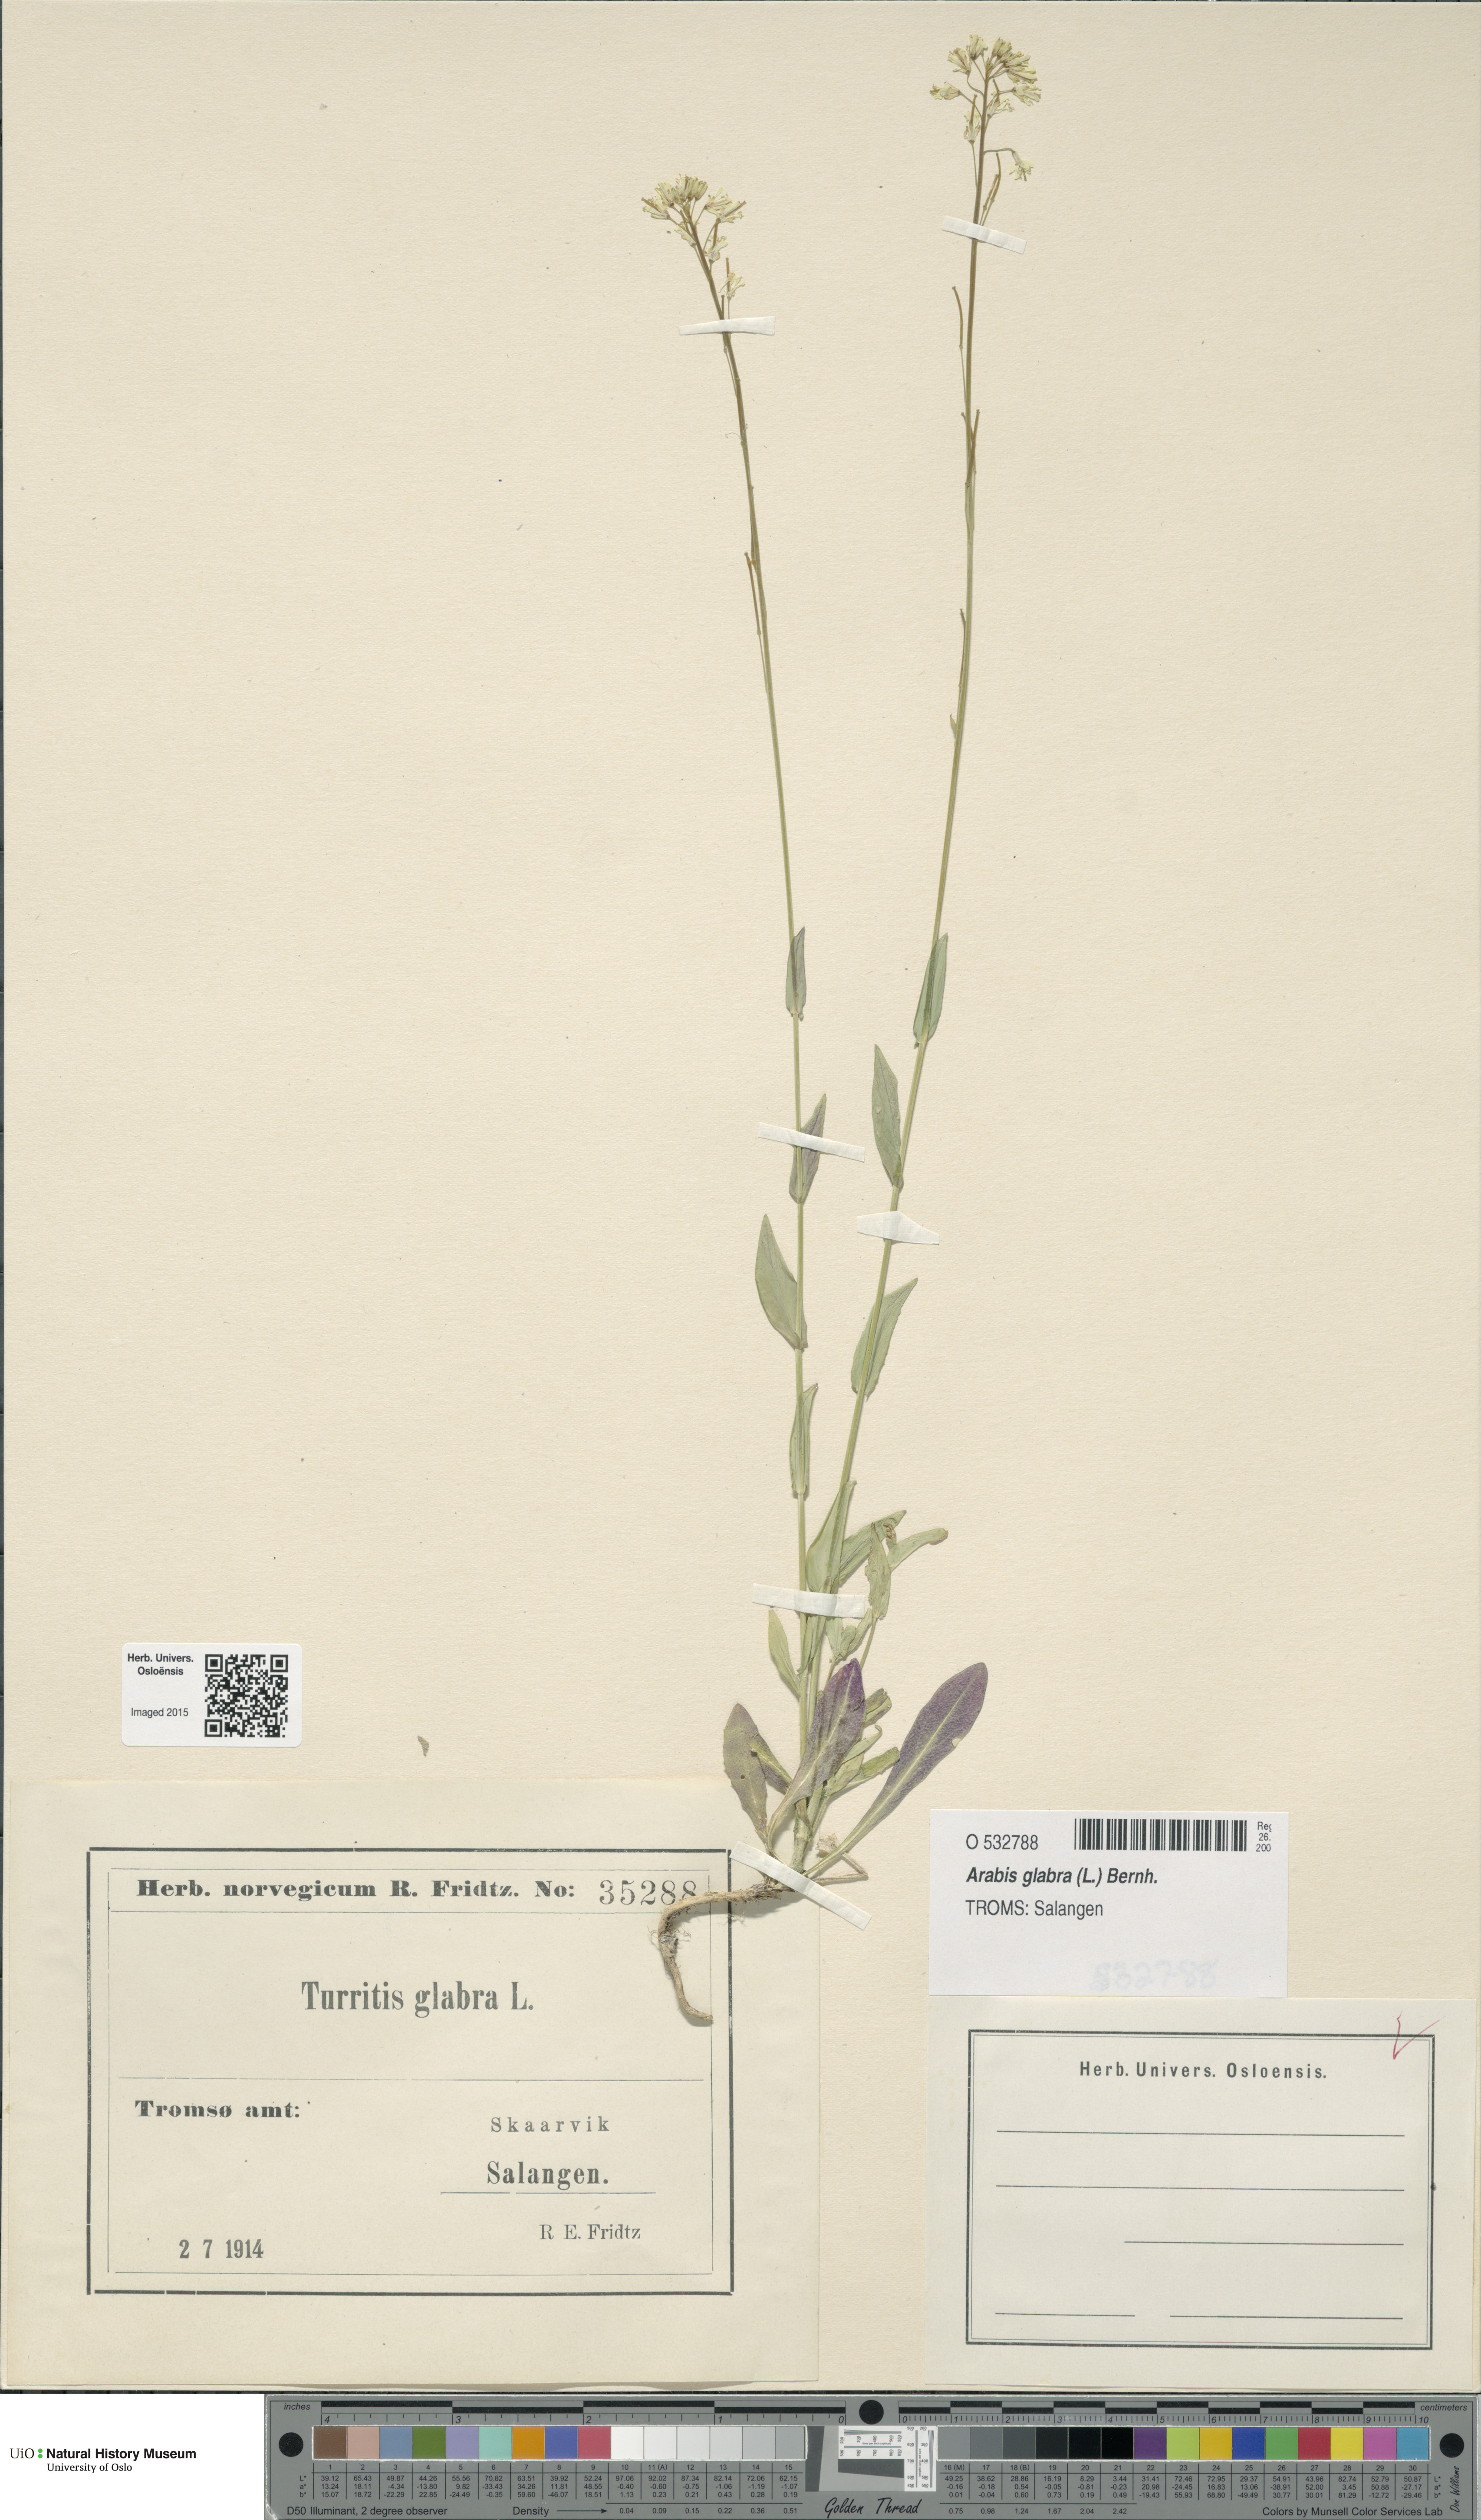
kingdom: Plantae
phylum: Tracheophyta
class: Magnoliopsida
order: Brassicales
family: Brassicaceae
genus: Turritis
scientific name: Turritis glabra
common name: Tower rockcress
